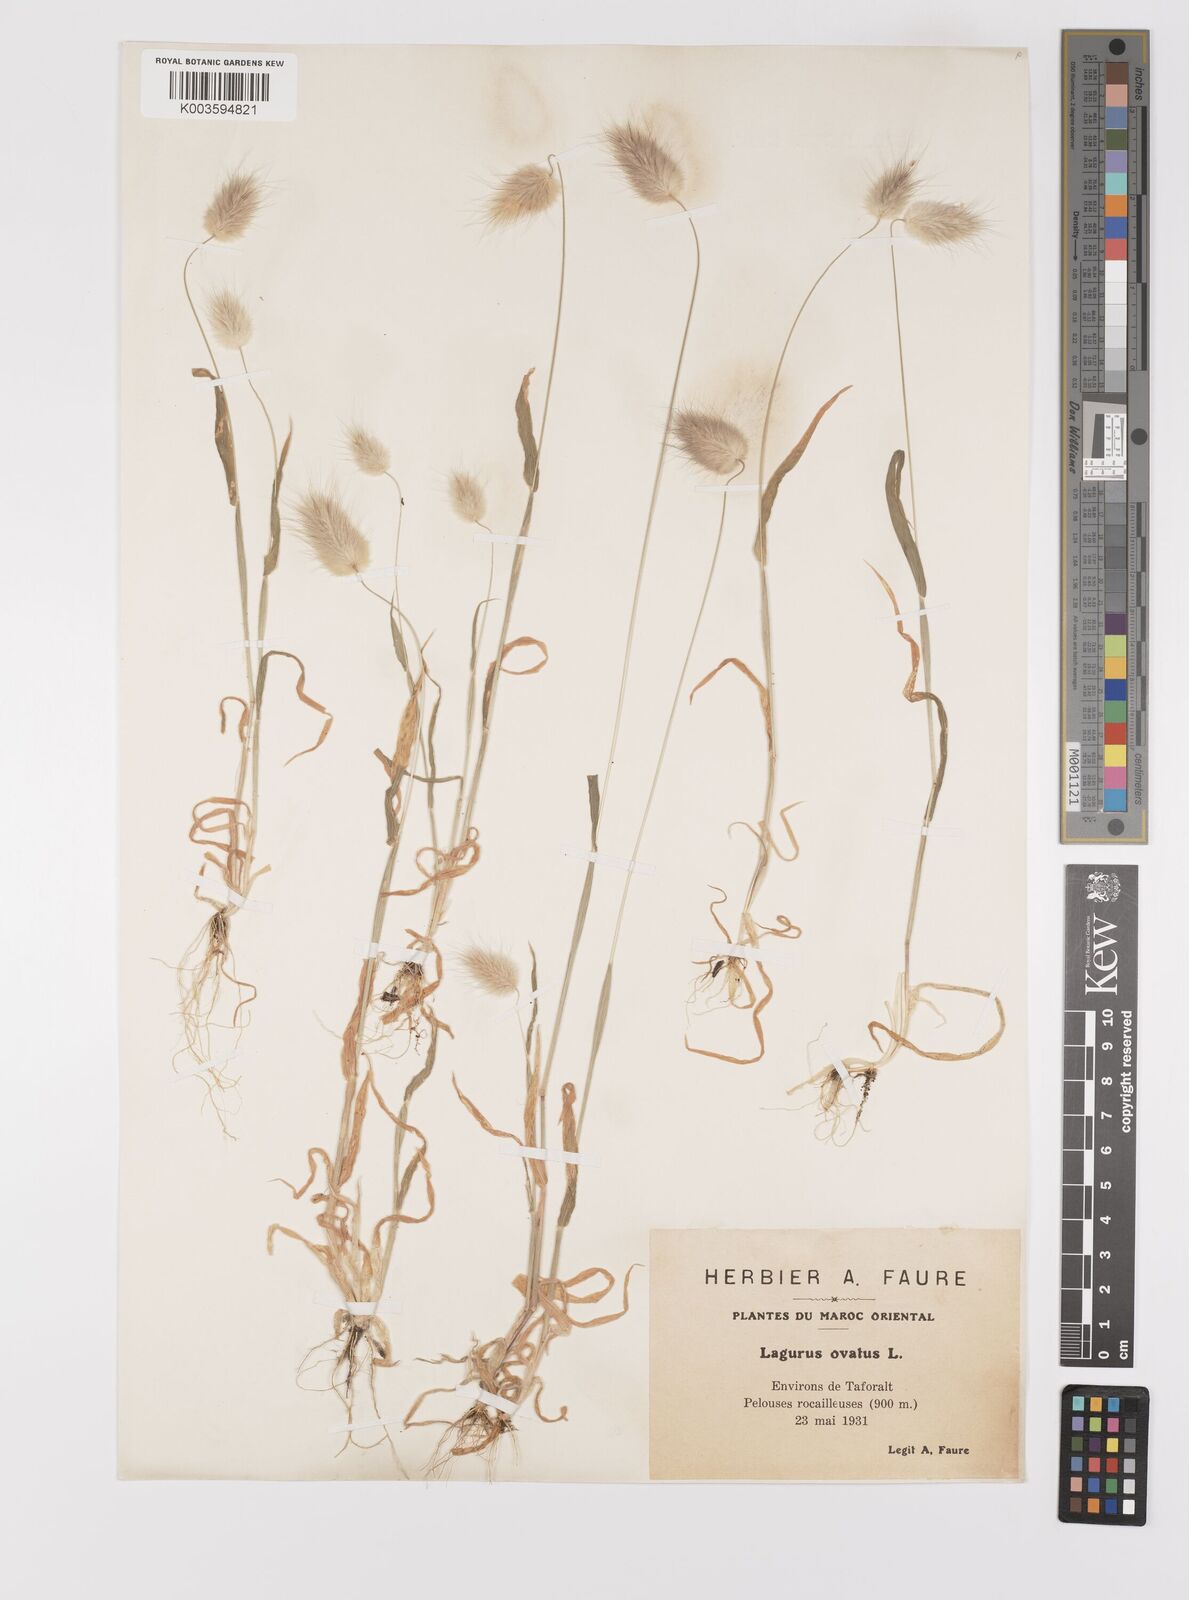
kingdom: Plantae
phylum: Tracheophyta
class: Liliopsida
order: Poales
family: Poaceae
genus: Lagurus
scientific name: Lagurus ovatus
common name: Hare's-tail
